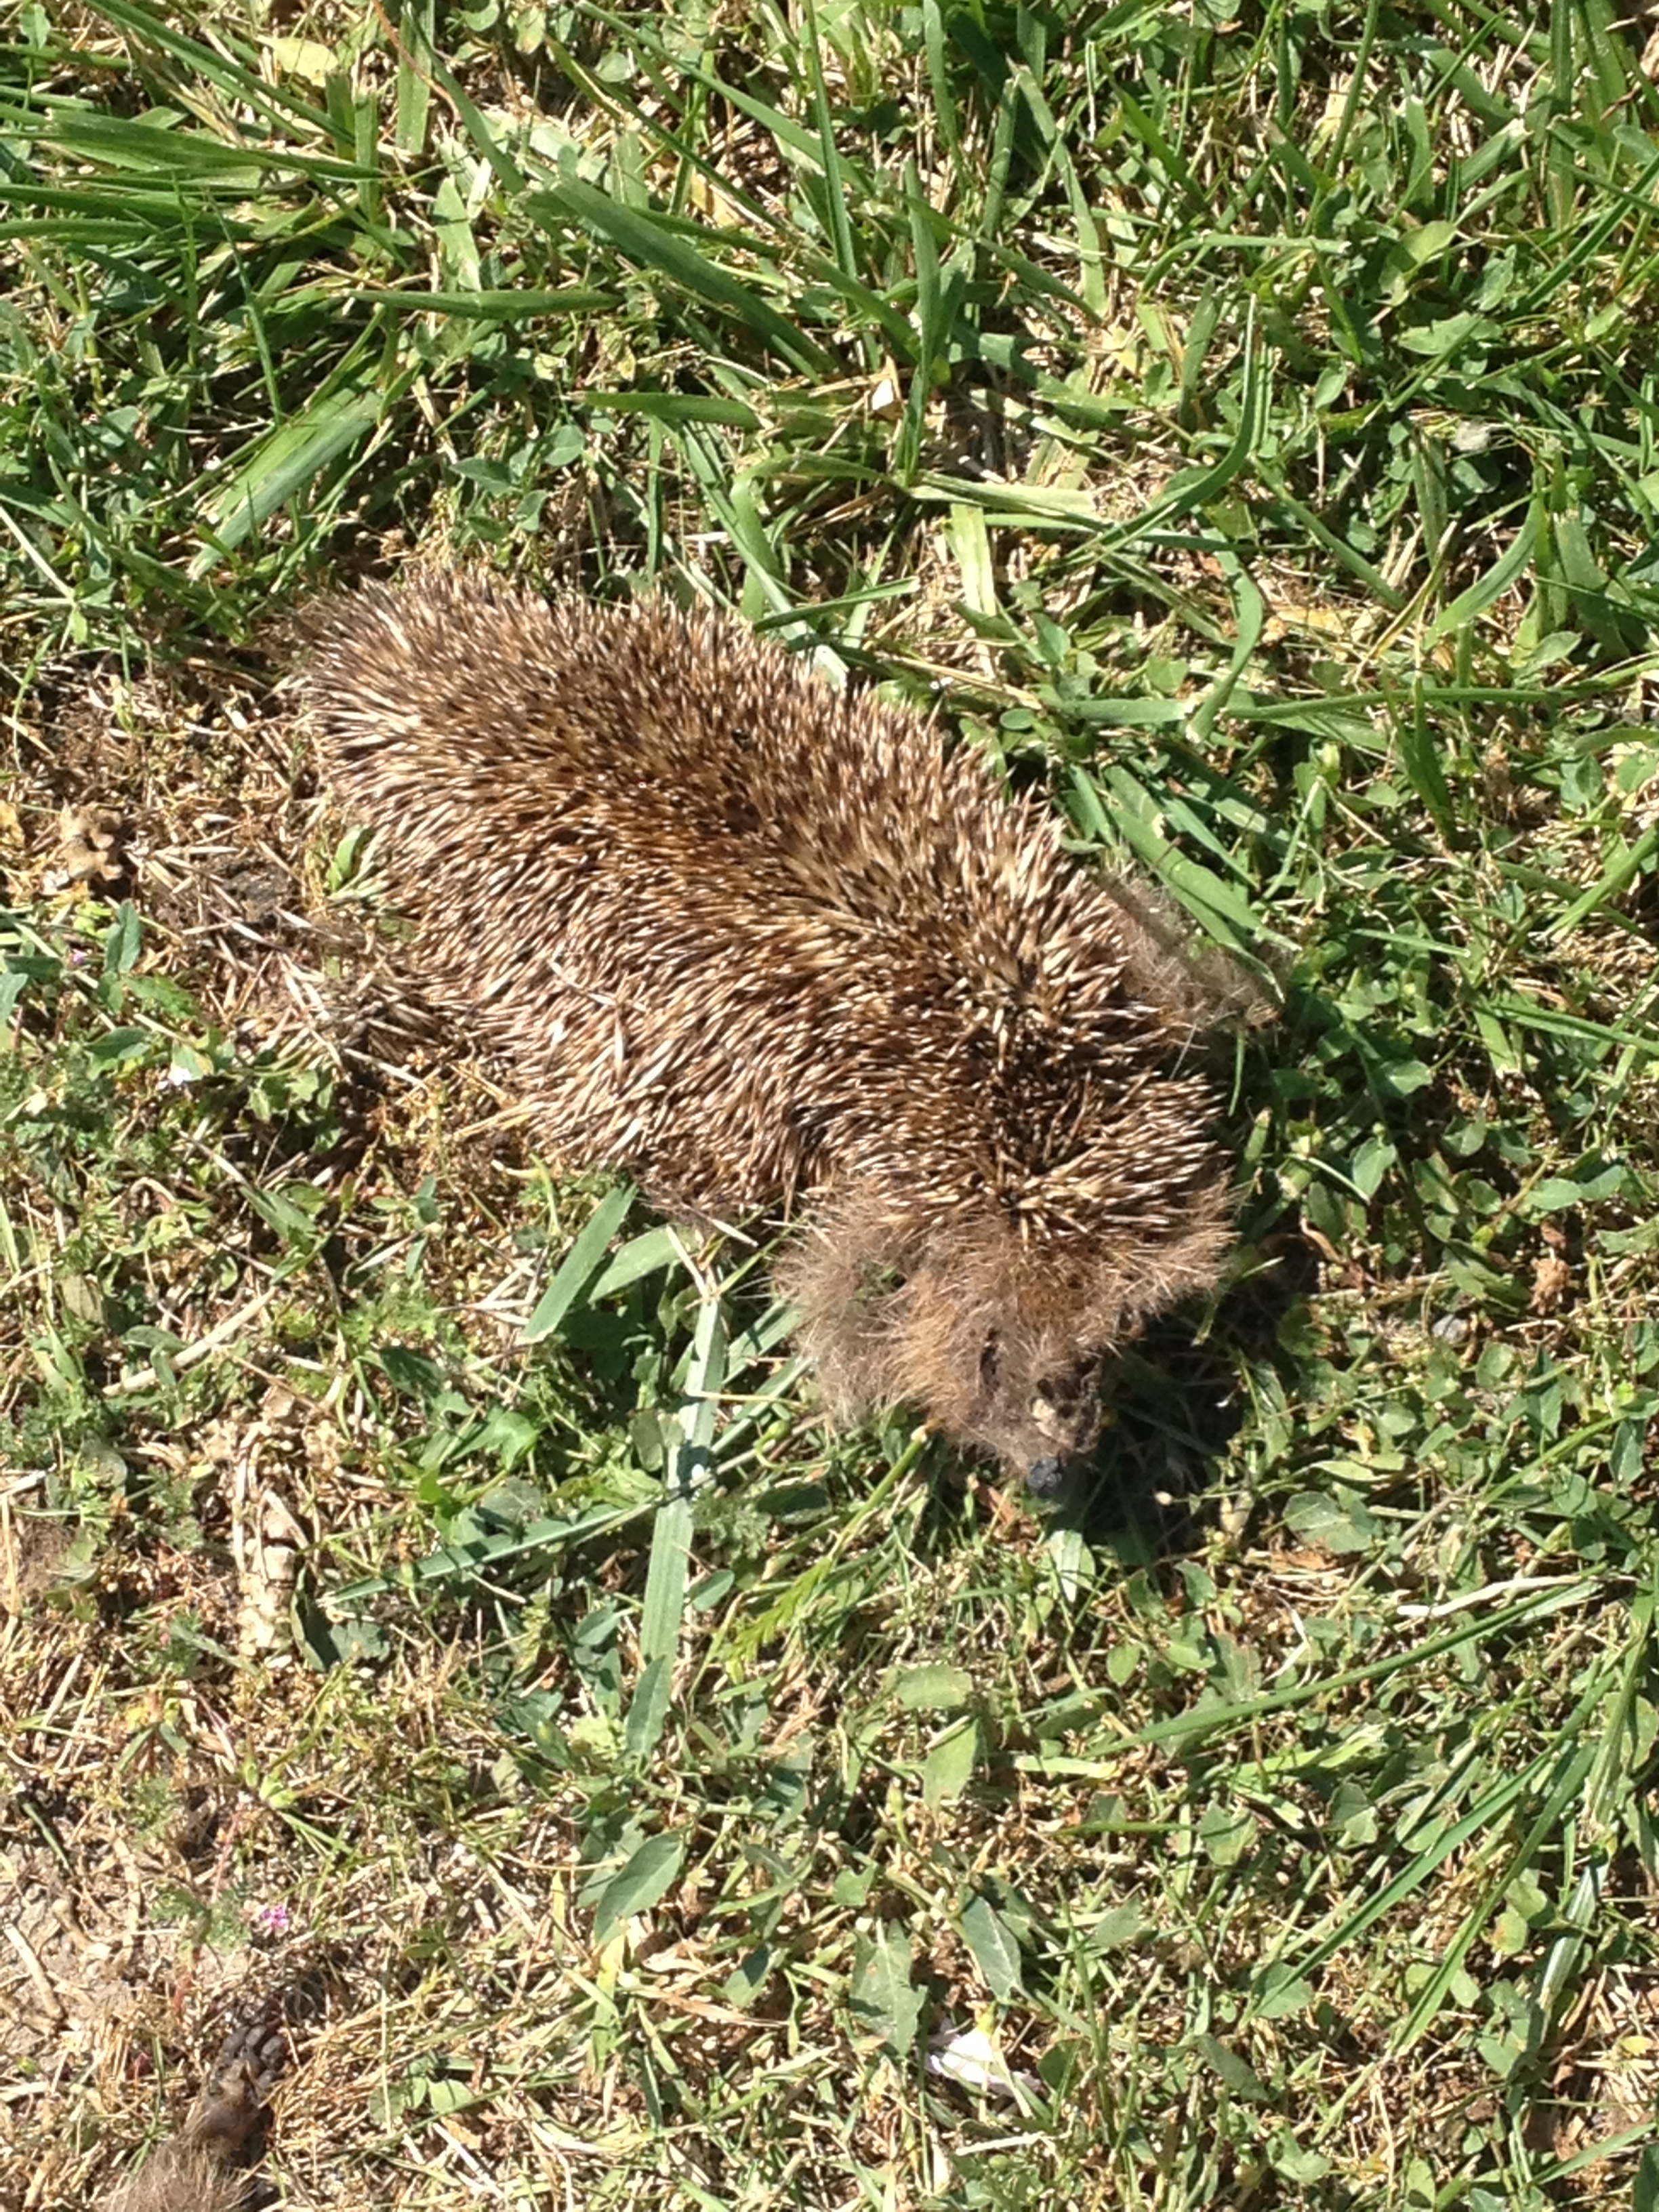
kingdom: Animalia
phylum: Chordata
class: Mammalia
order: Erinaceomorpha
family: Erinaceidae
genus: Erinaceus
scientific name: Erinaceus
